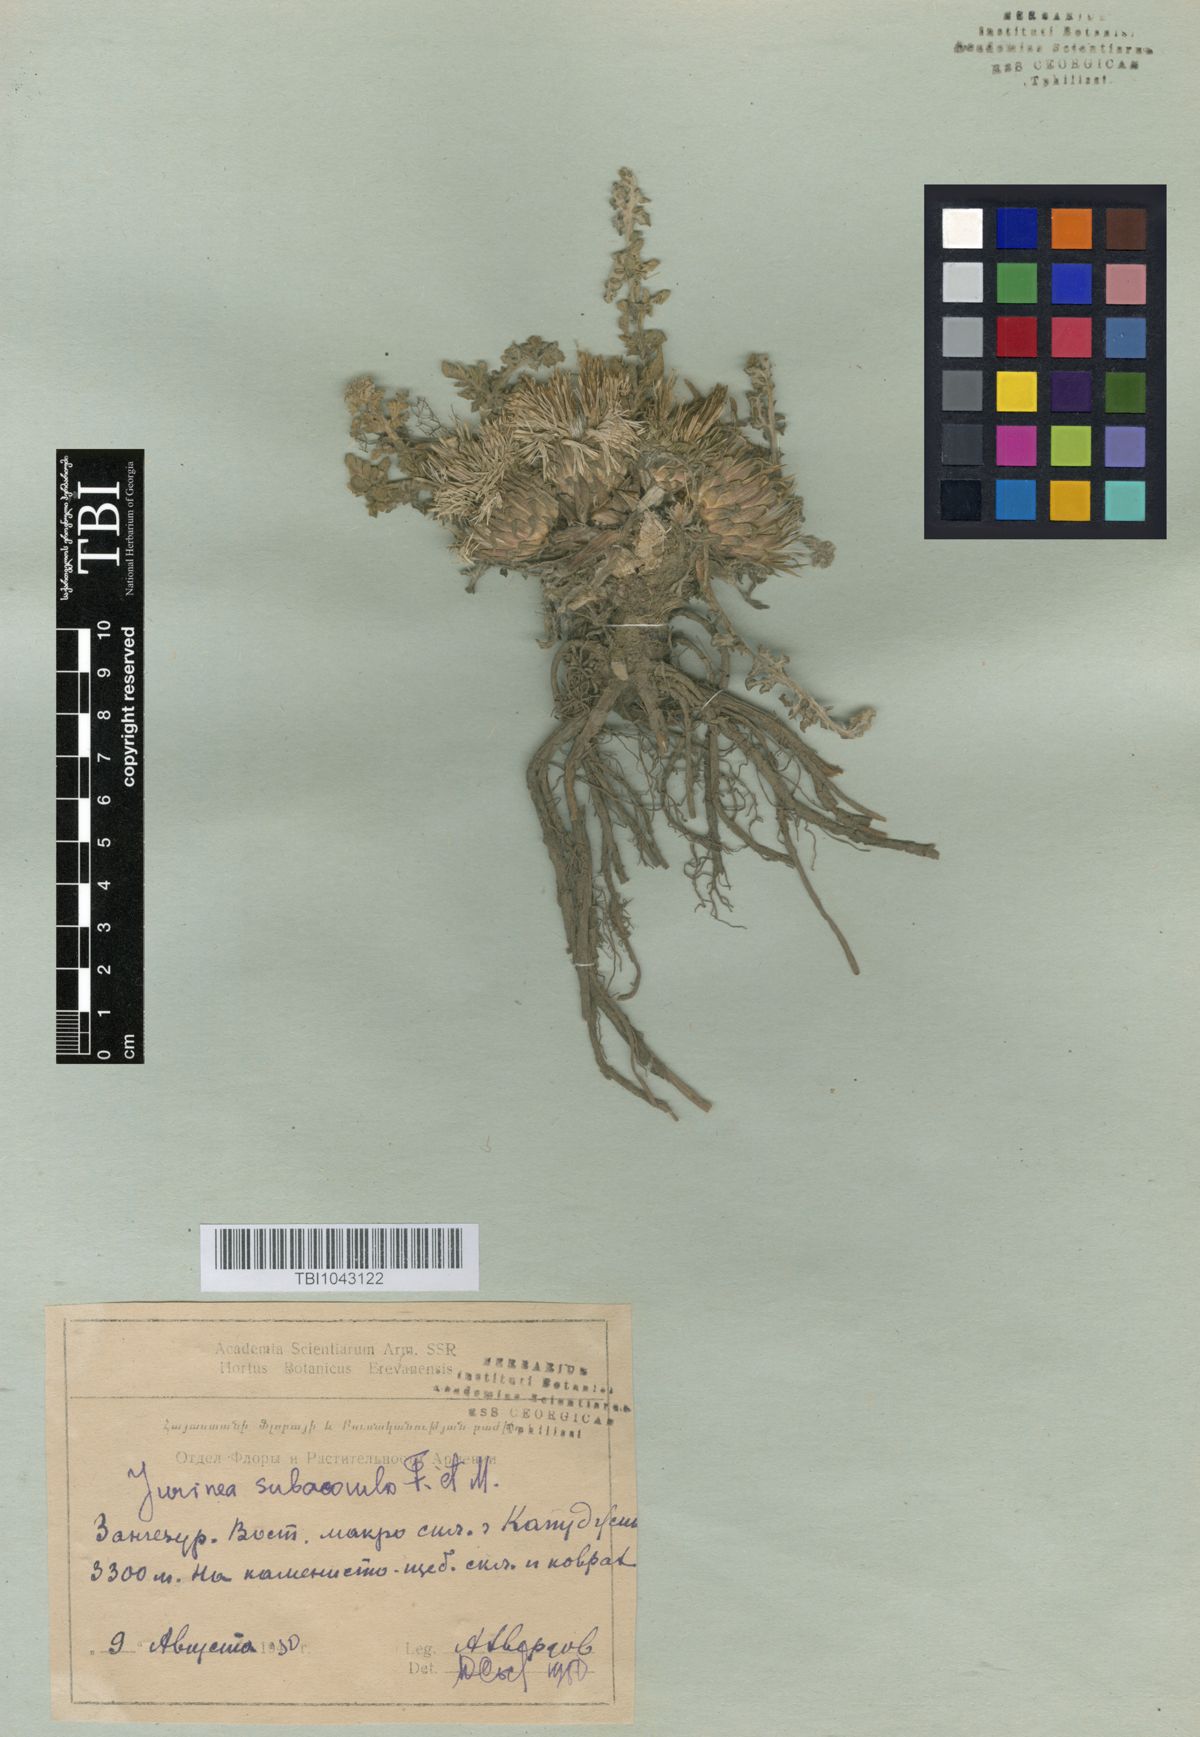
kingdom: Plantae
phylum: Tracheophyta
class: Magnoliopsida
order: Asterales
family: Asteraceae
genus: Jurinea
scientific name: Jurinea moschus
